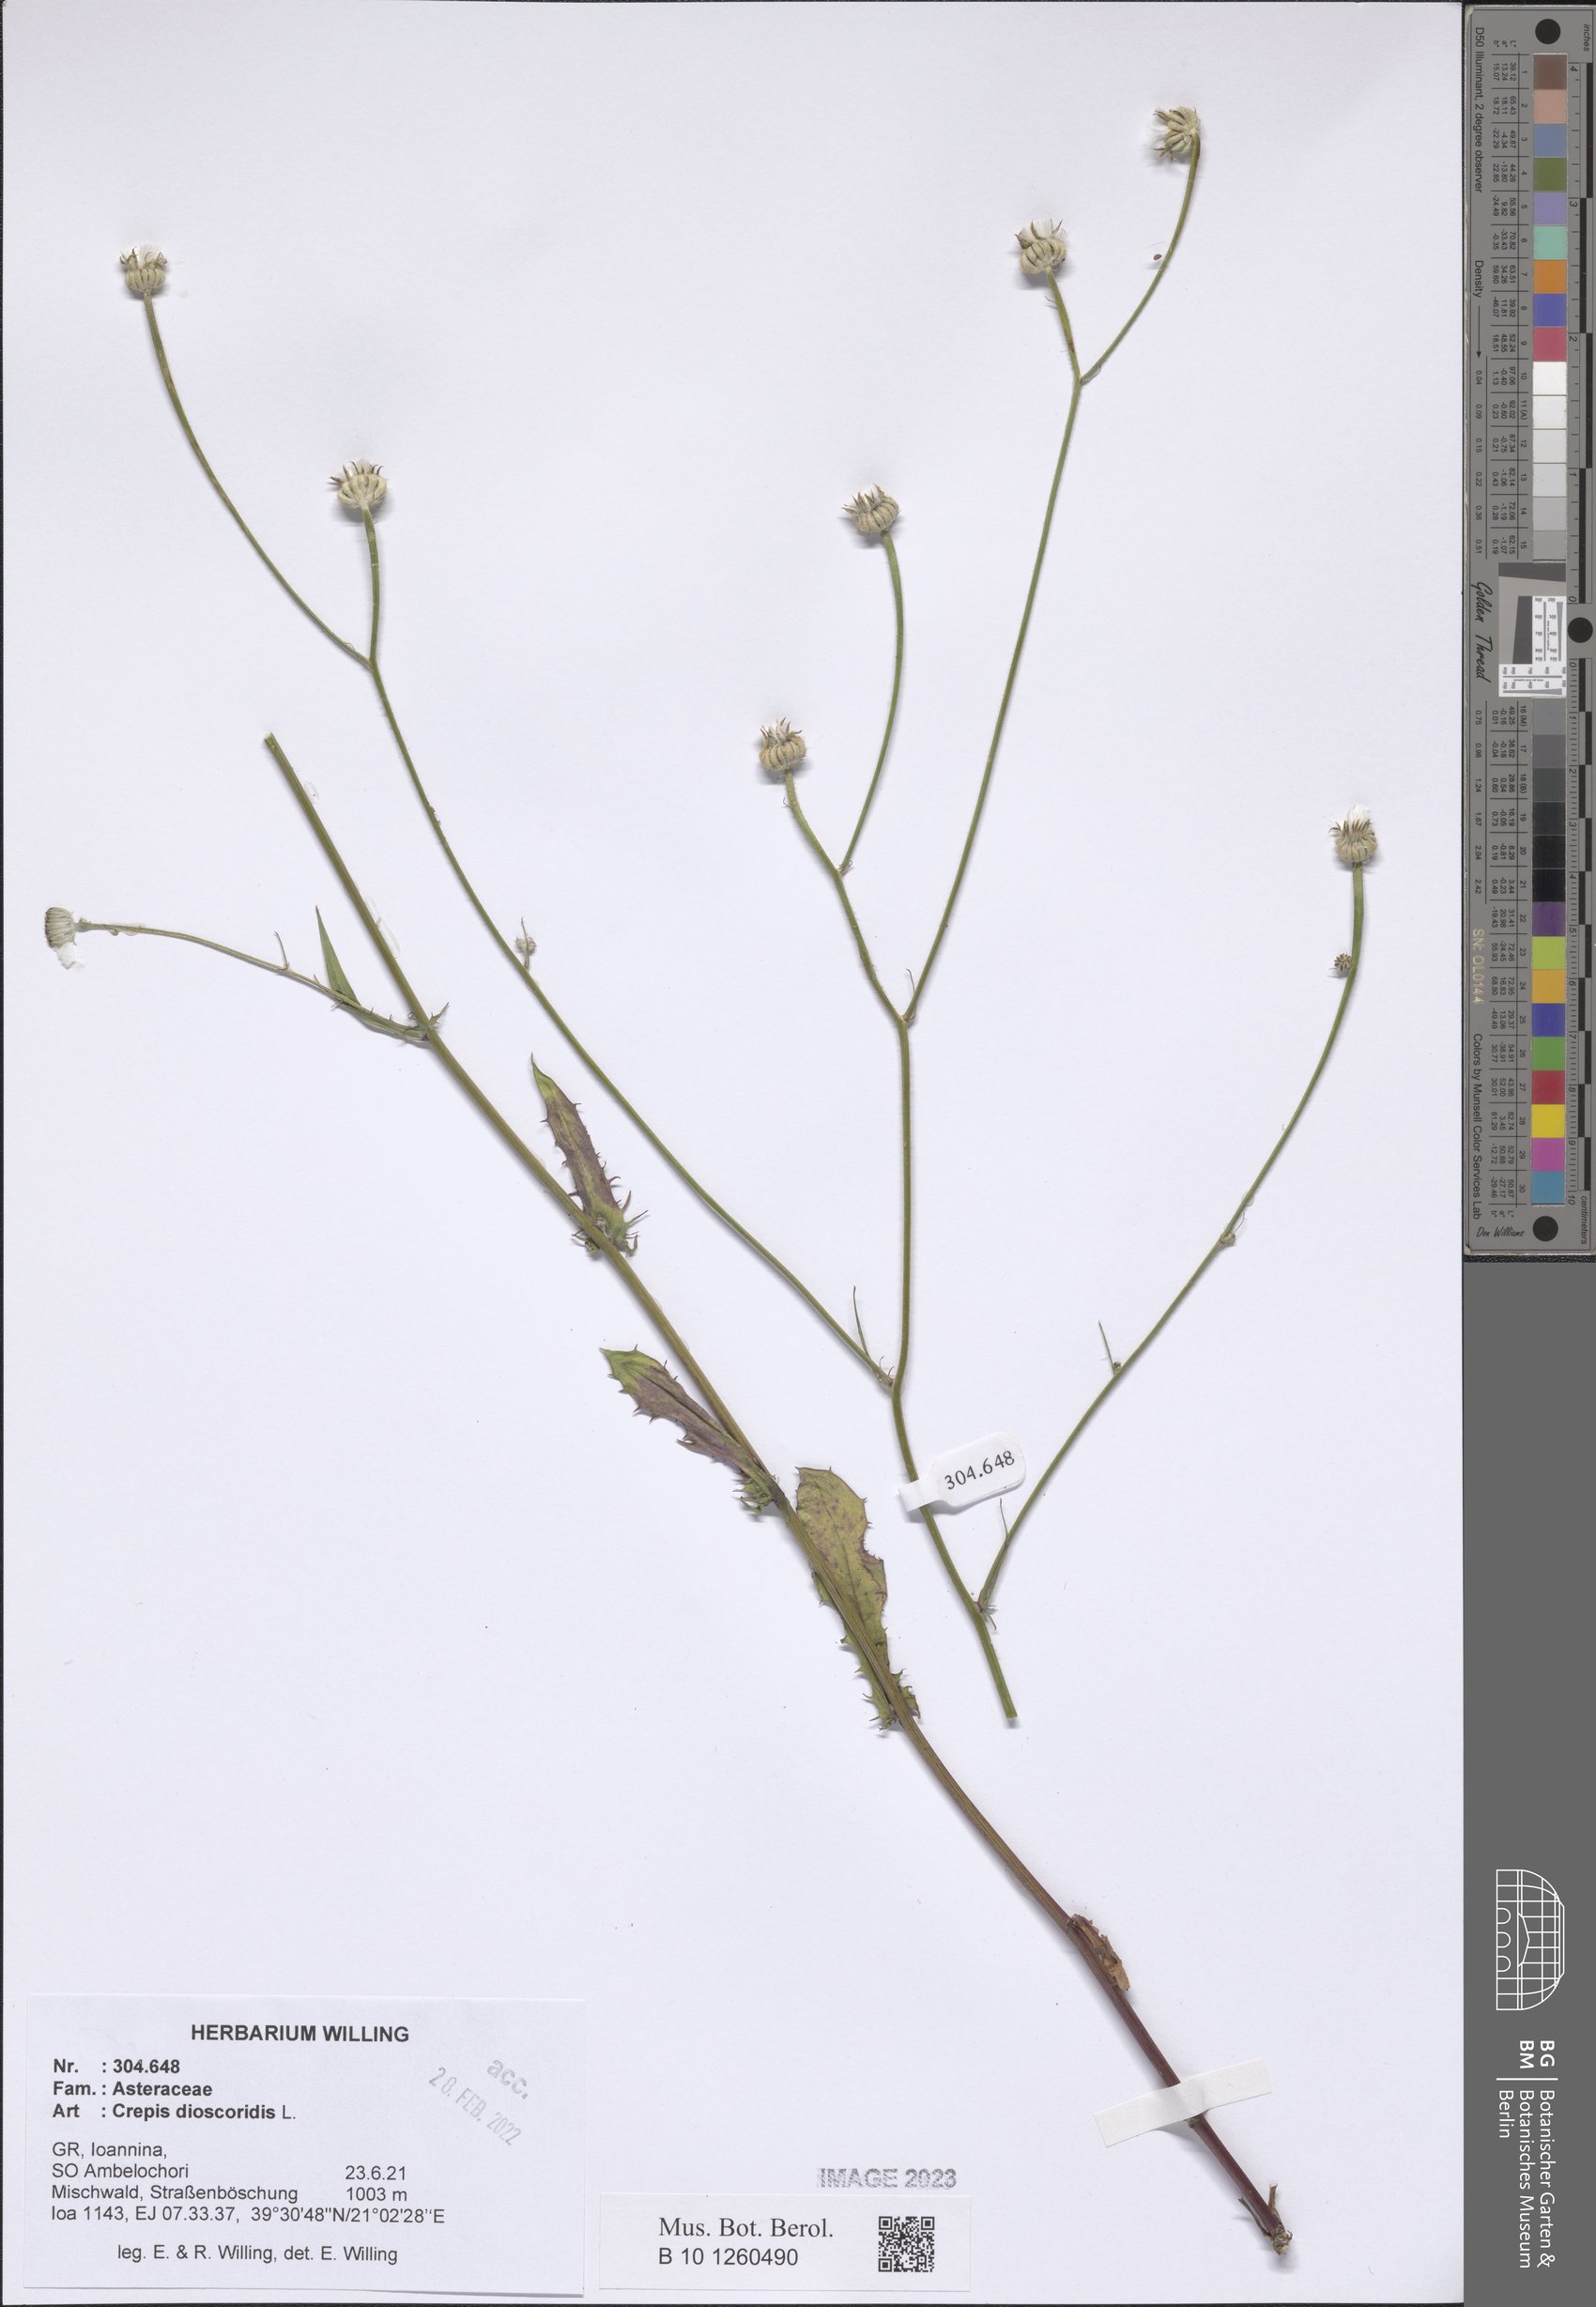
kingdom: Plantae
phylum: Tracheophyta
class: Magnoliopsida
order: Asterales
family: Asteraceae
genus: Crepis
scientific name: Crepis dioscoridis
